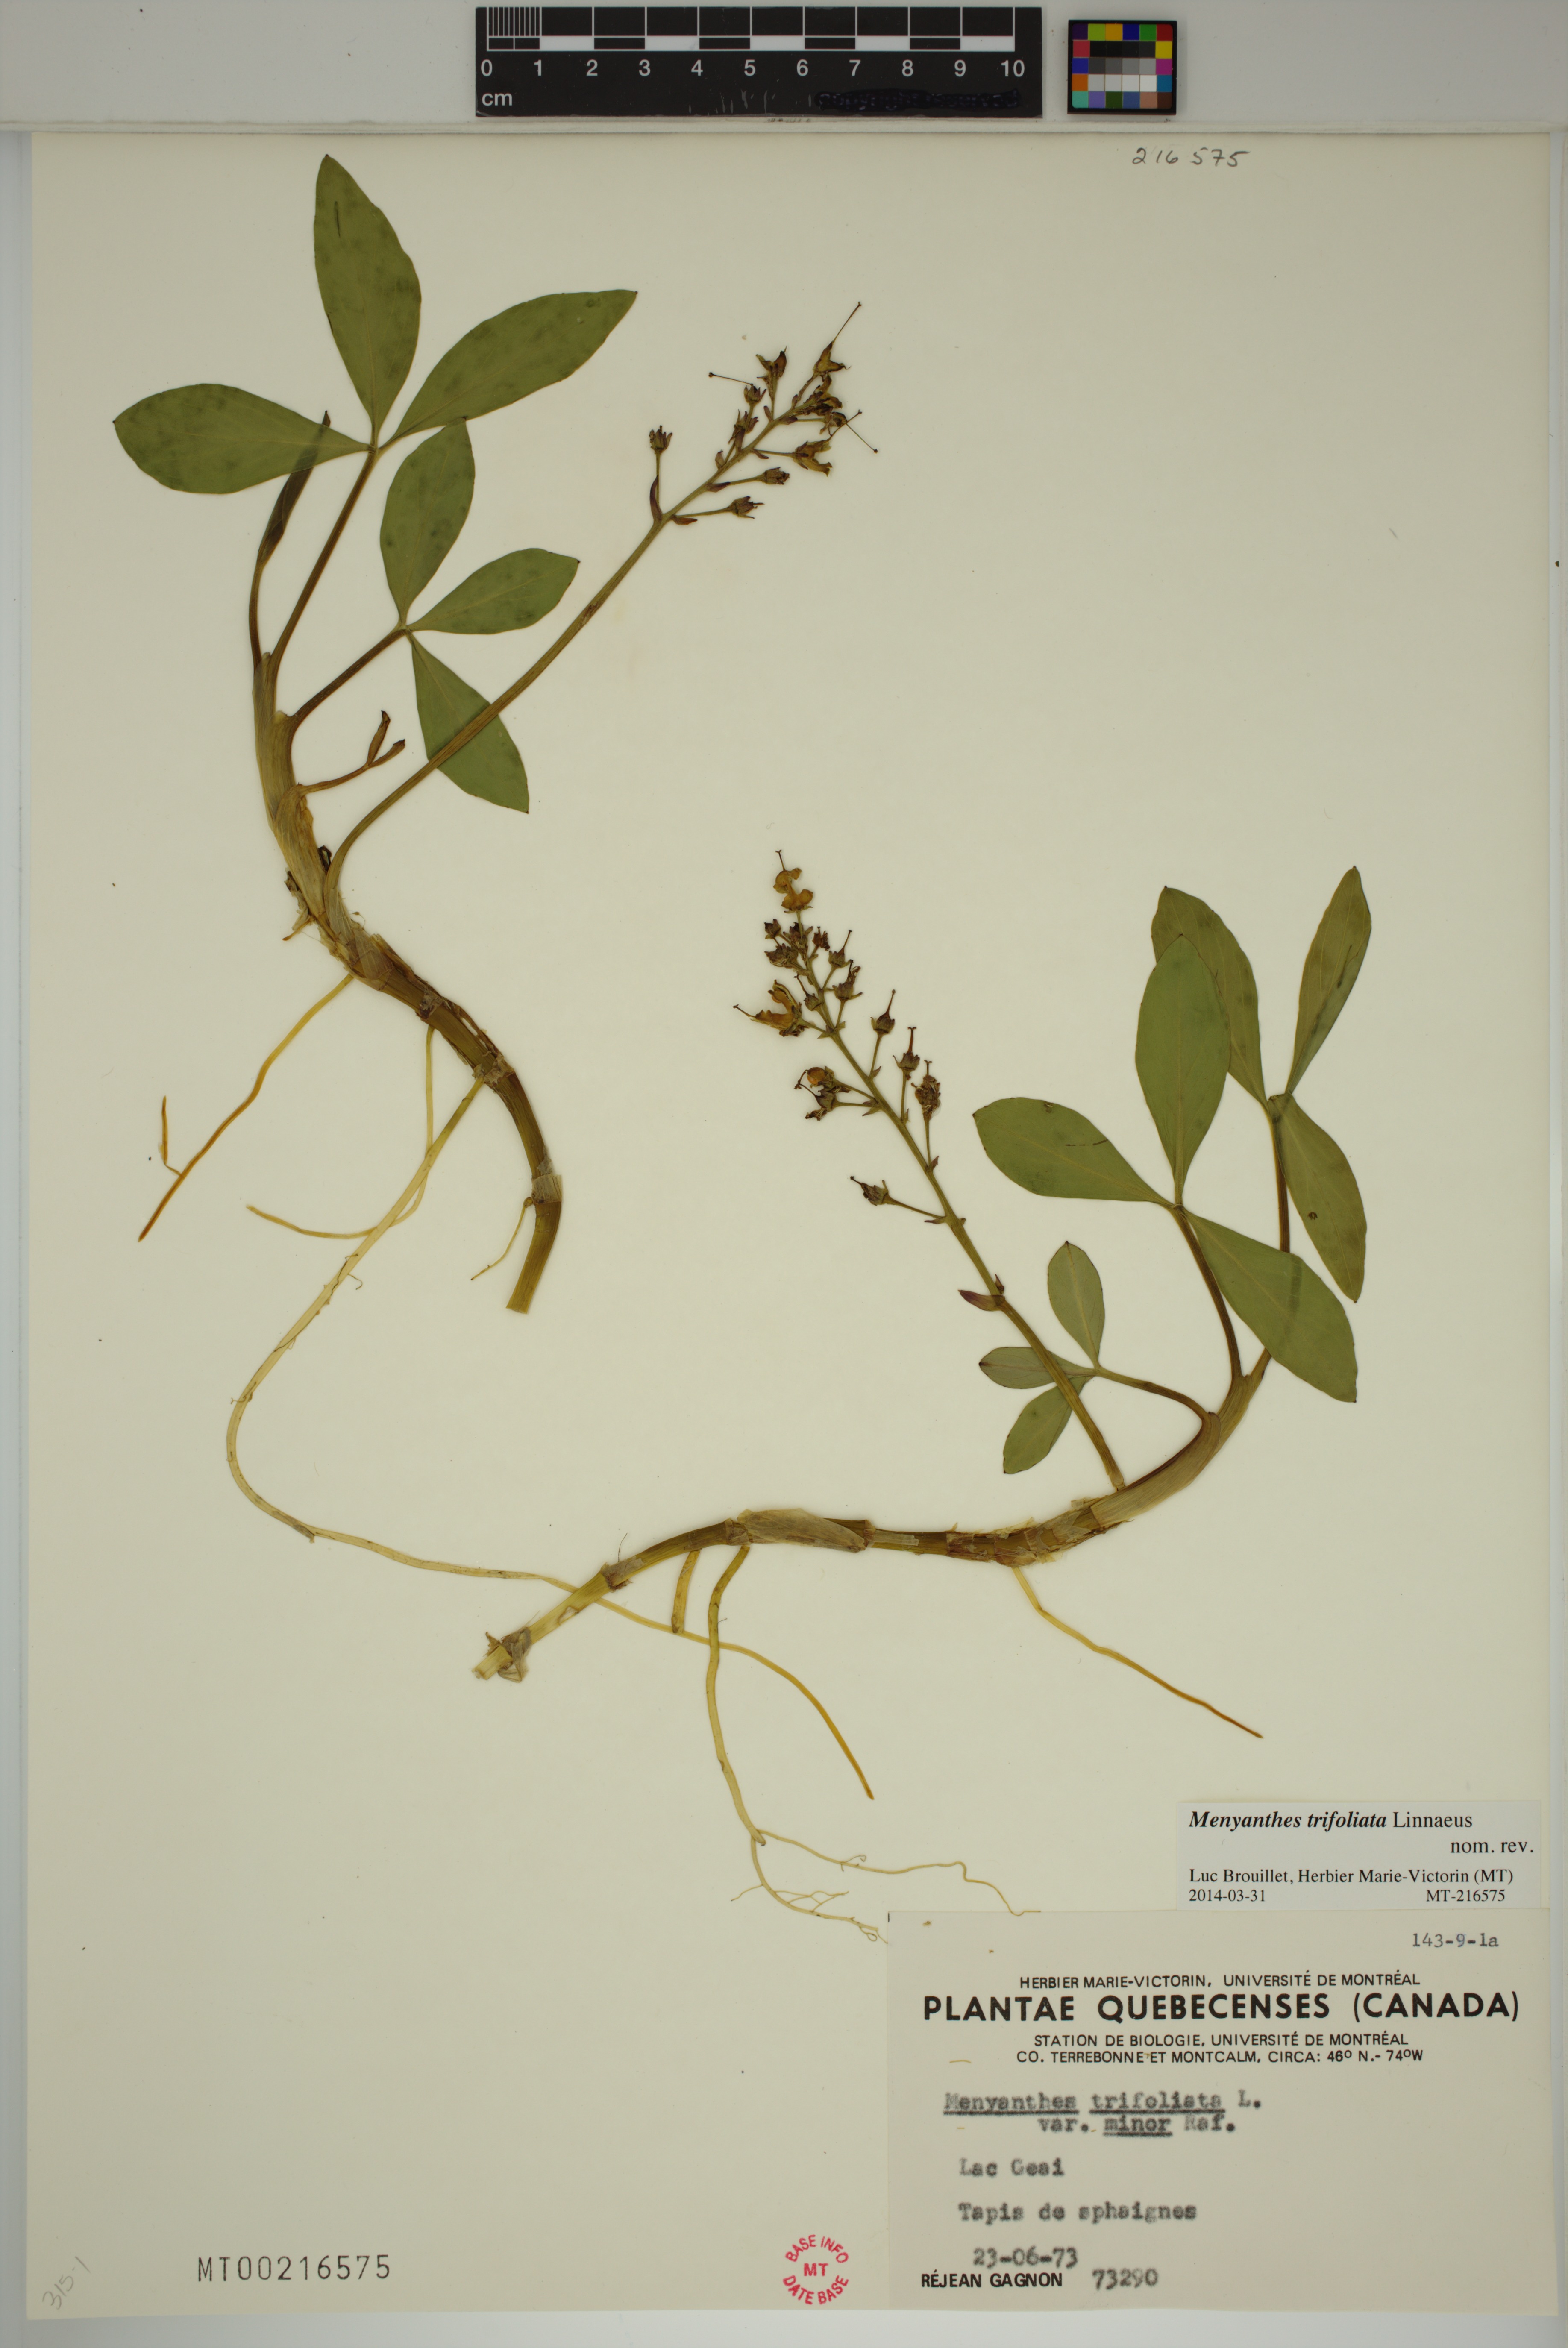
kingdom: Plantae
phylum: Tracheophyta
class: Magnoliopsida
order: Asterales
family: Menyanthaceae
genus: Menyanthes
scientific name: Menyanthes trifoliata
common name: Bogbean
